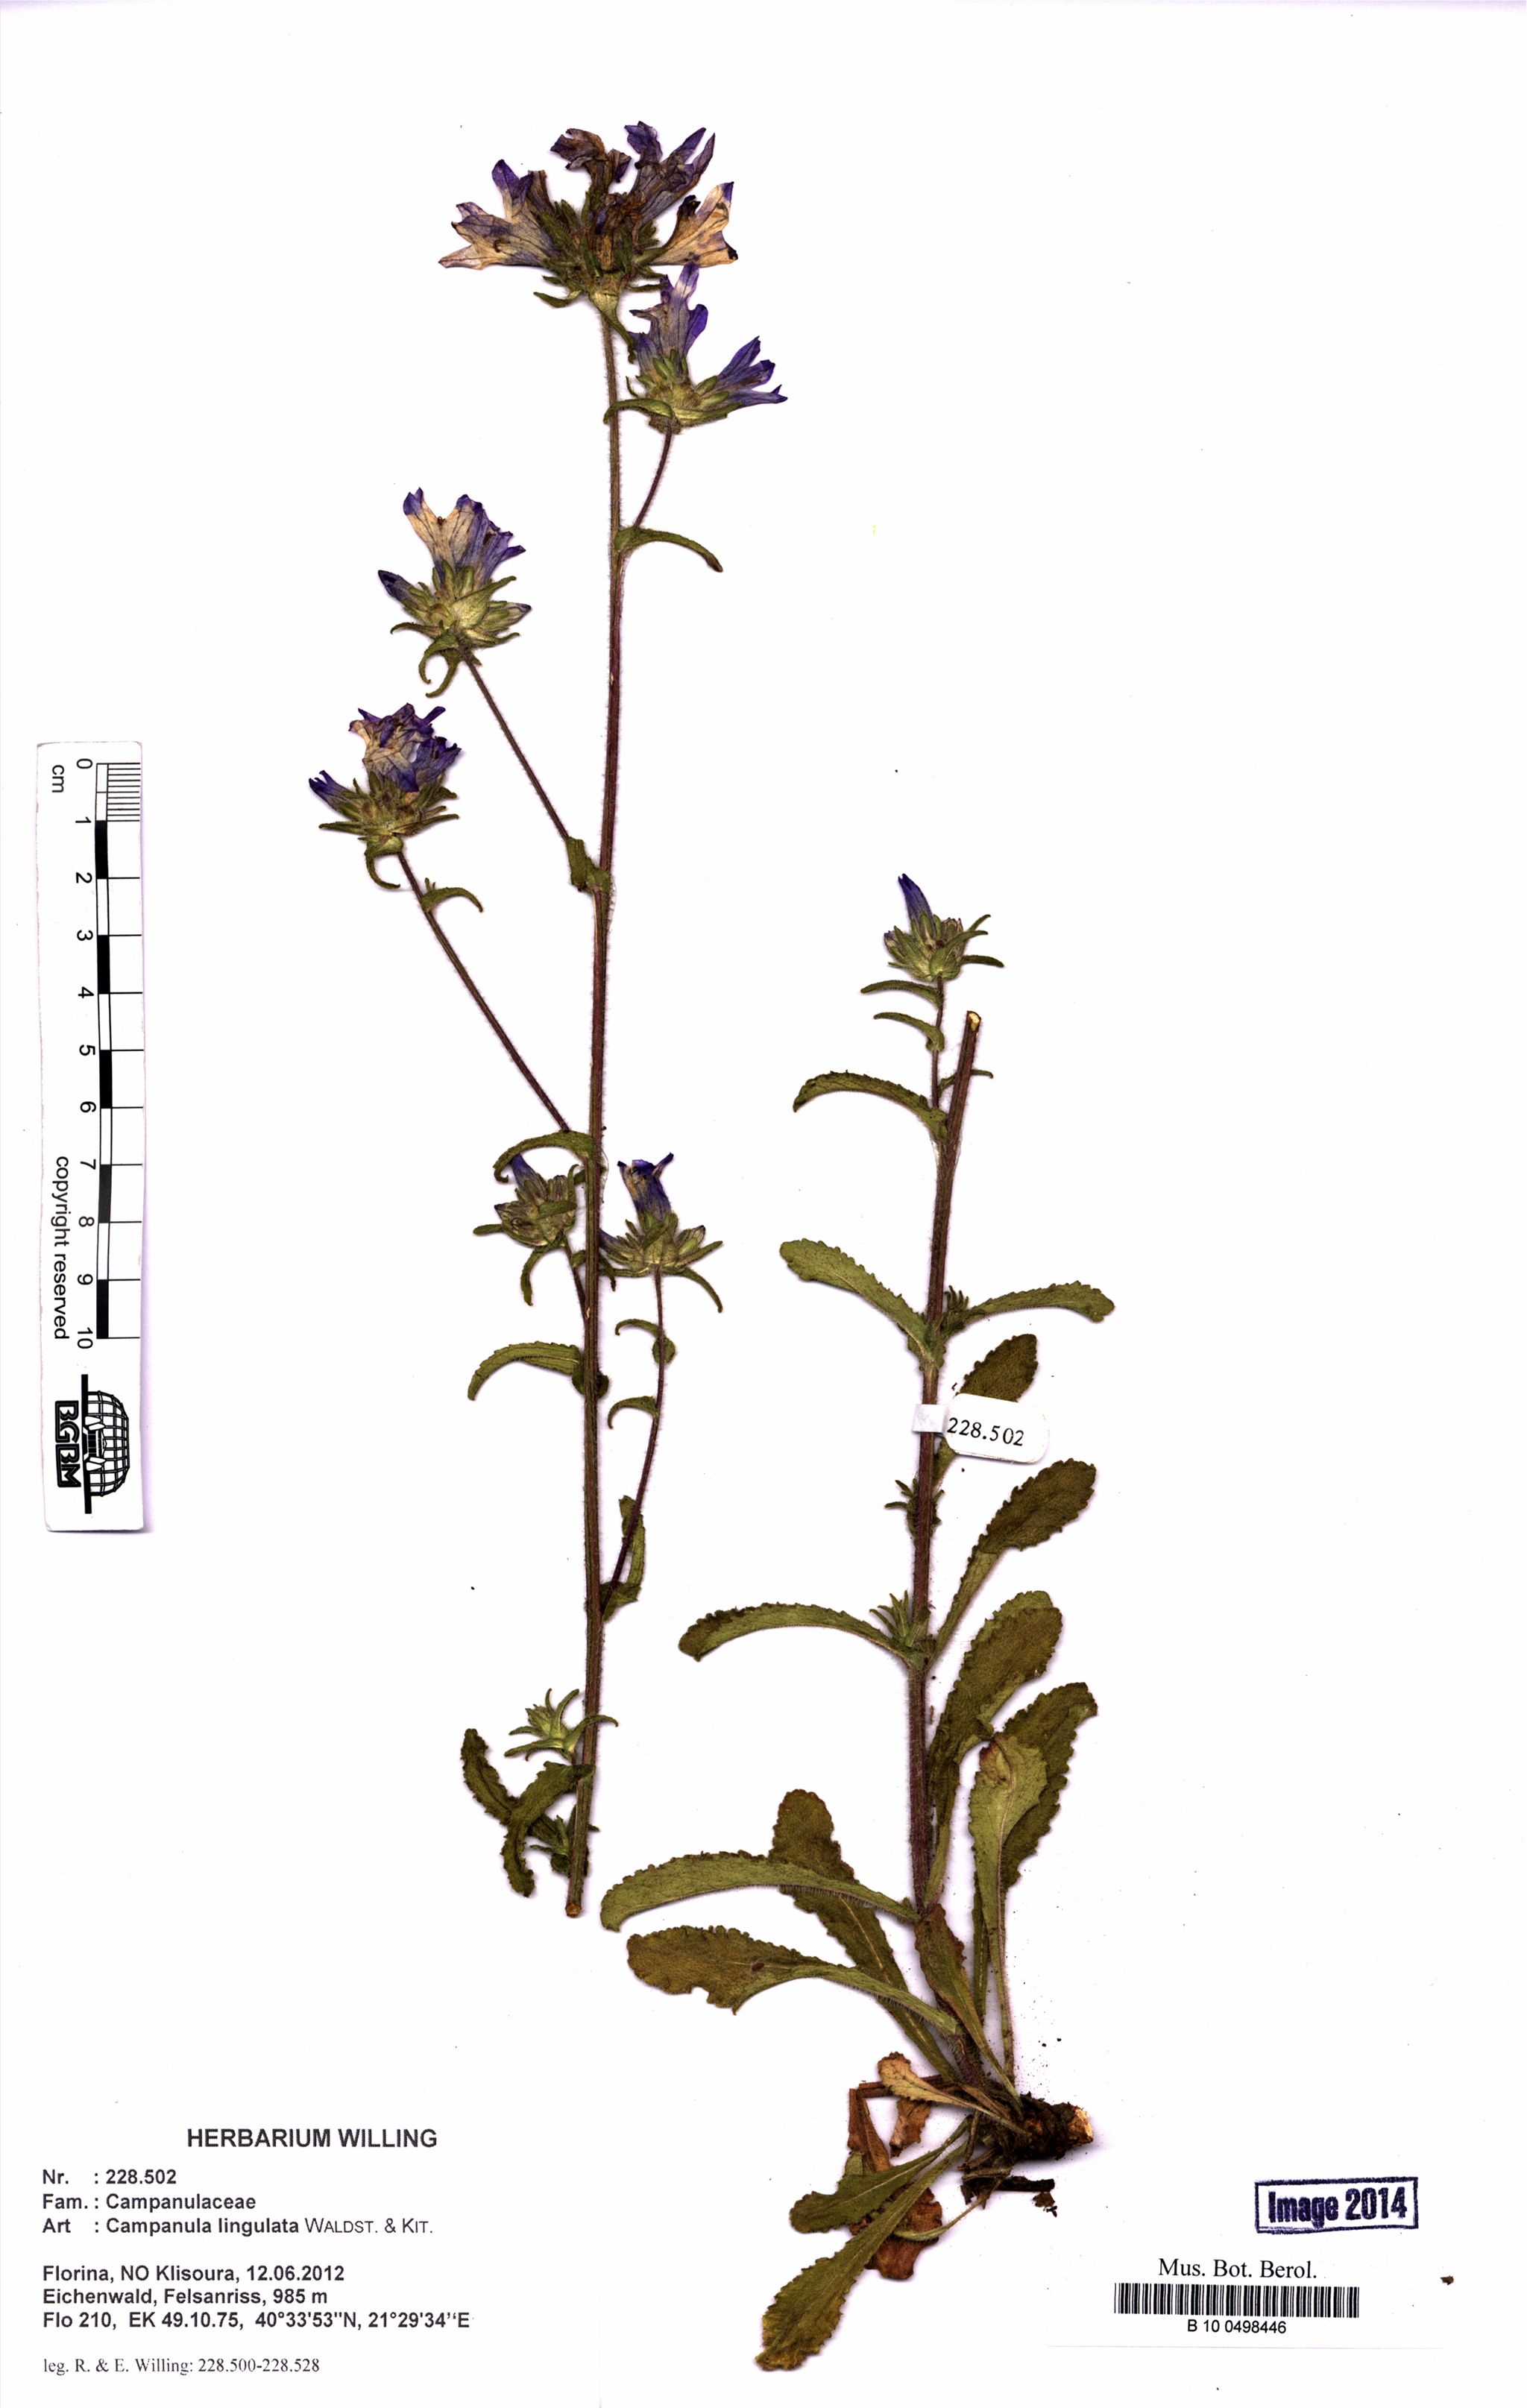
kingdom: Plantae
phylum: Tracheophyta
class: Magnoliopsida
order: Asterales
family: Campanulaceae
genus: Campanula
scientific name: Campanula lingulata
